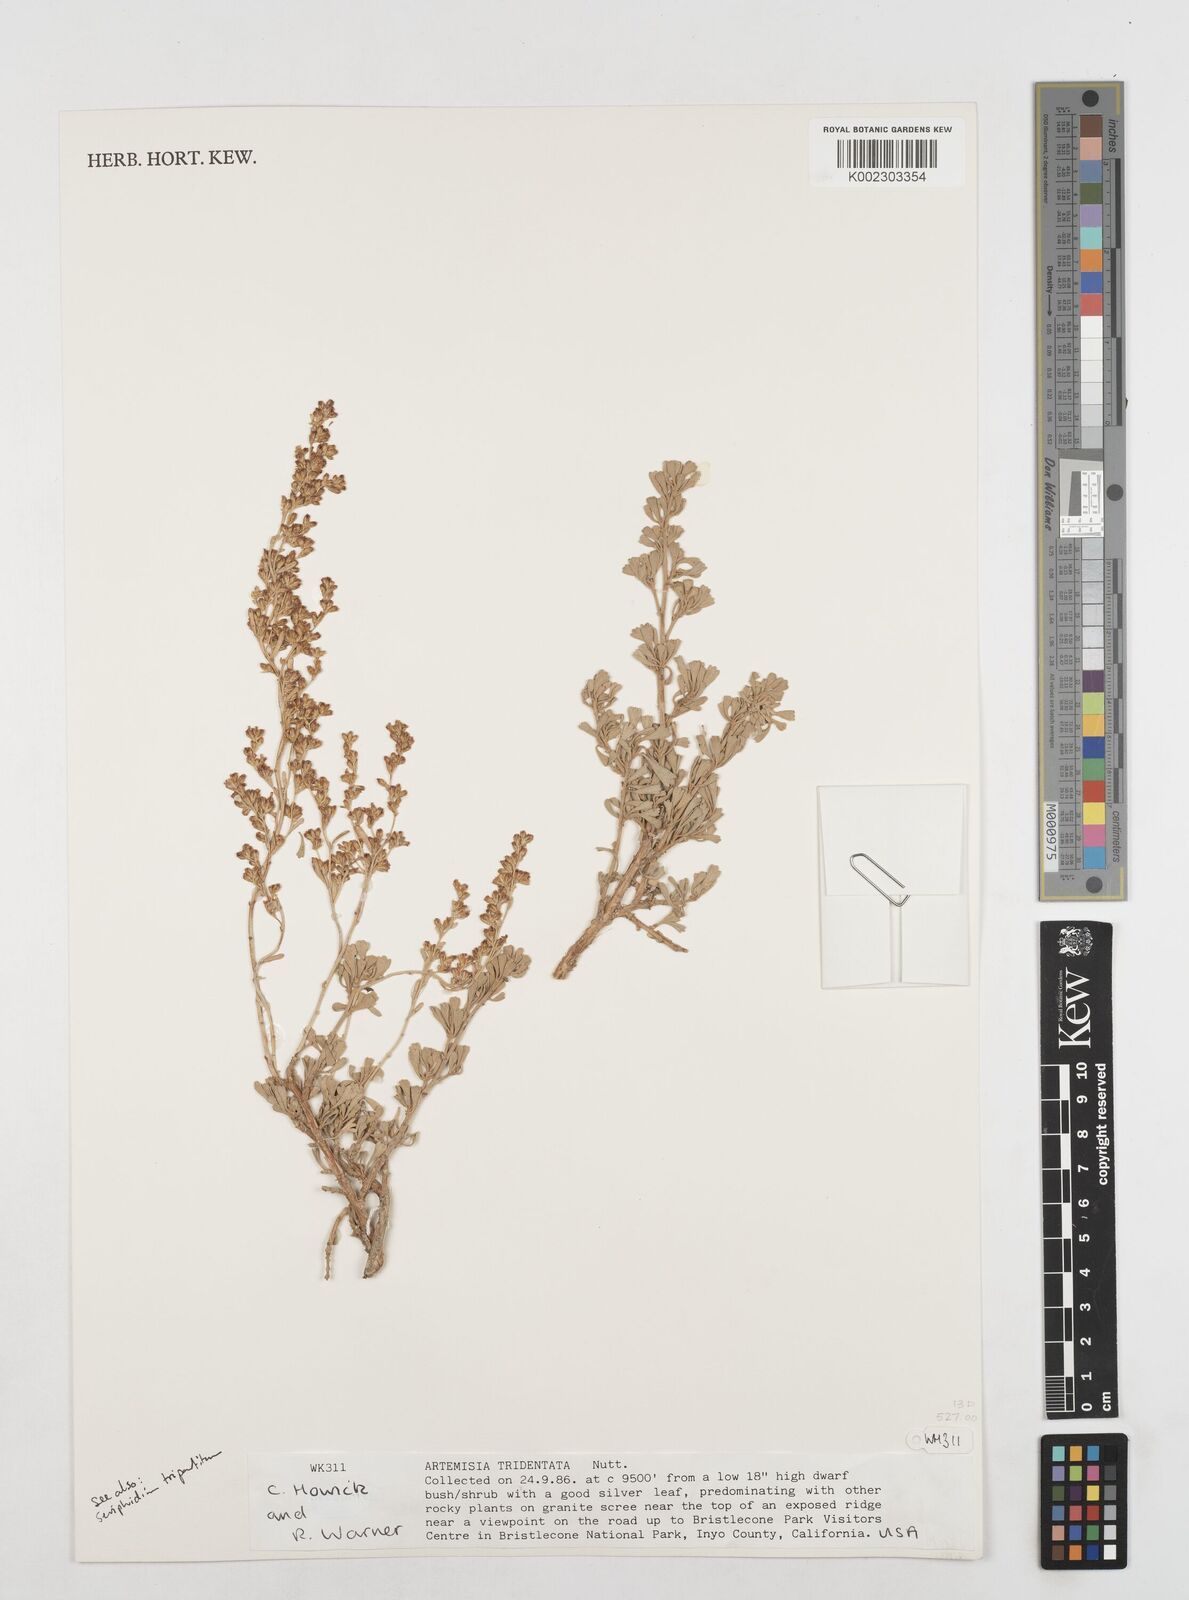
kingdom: Plantae
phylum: Tracheophyta
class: Magnoliopsida
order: Asterales
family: Asteraceae
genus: Artemisia
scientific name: Artemisia tridentata
